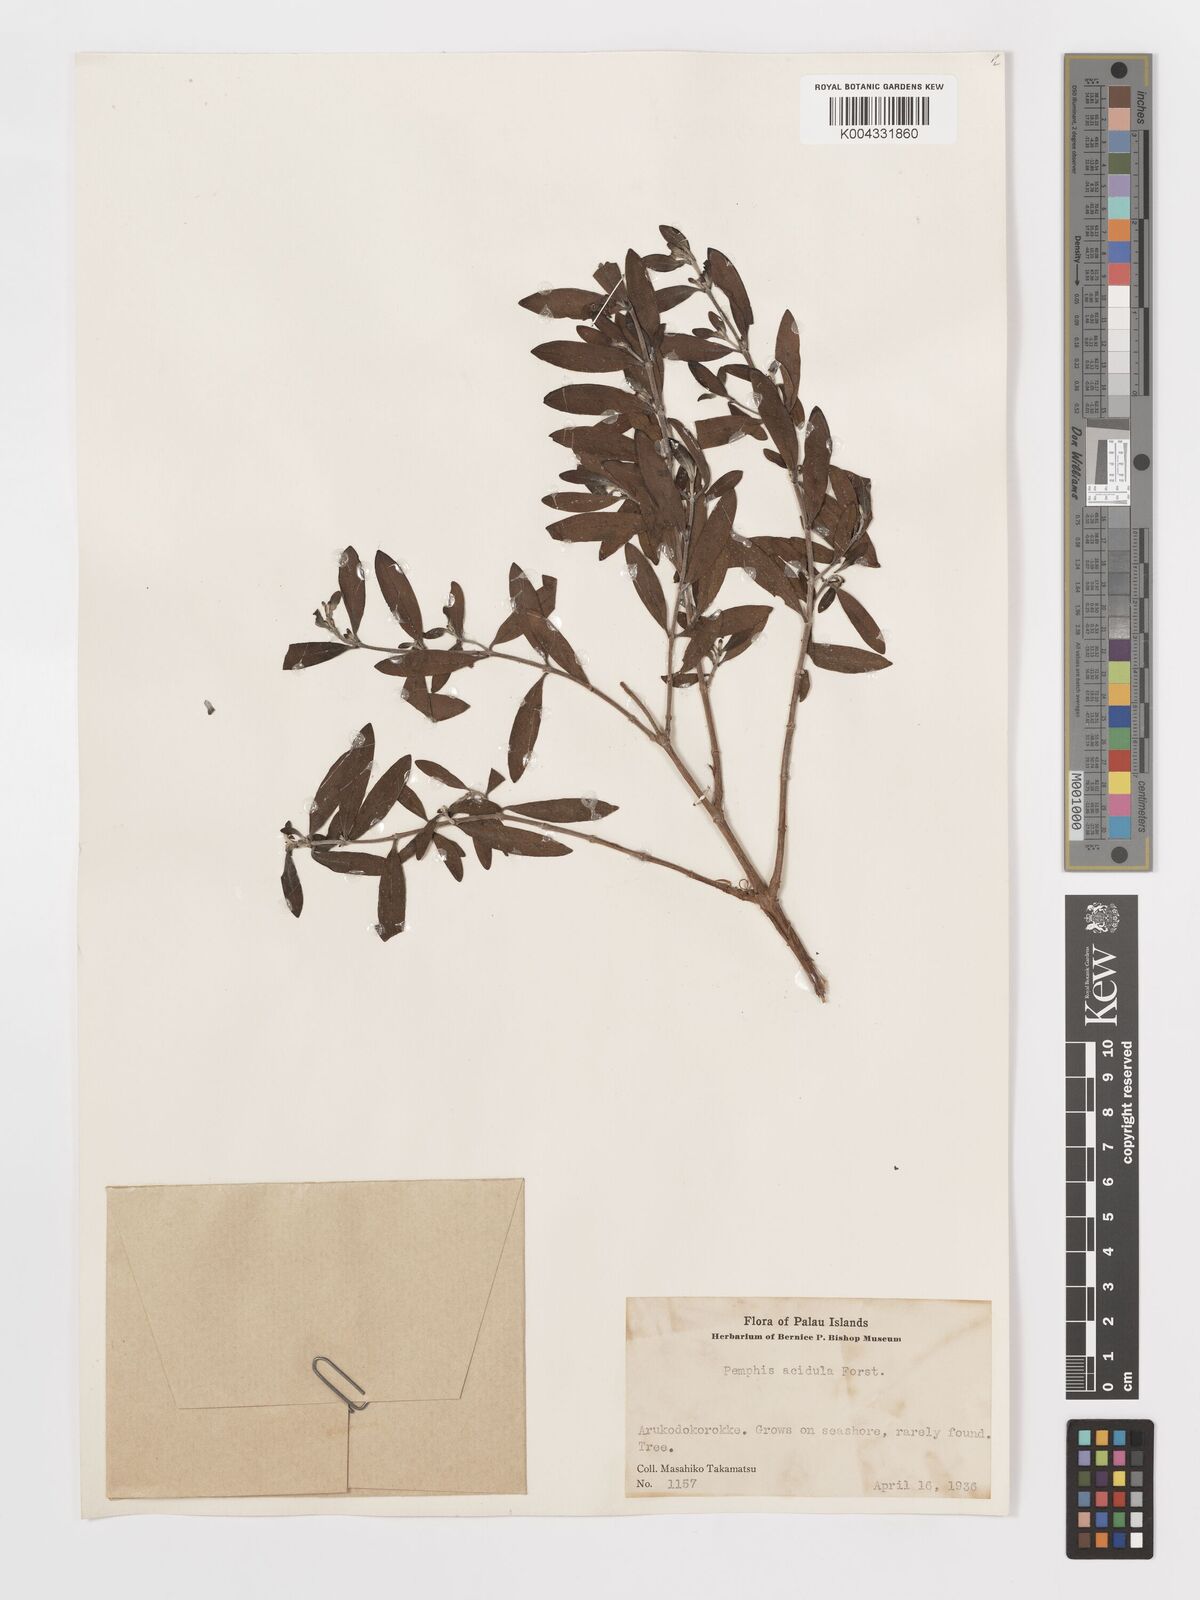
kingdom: Plantae
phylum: Tracheophyta
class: Magnoliopsida
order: Myrtales
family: Lythraceae
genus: Pemphis
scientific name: Pemphis acidula
